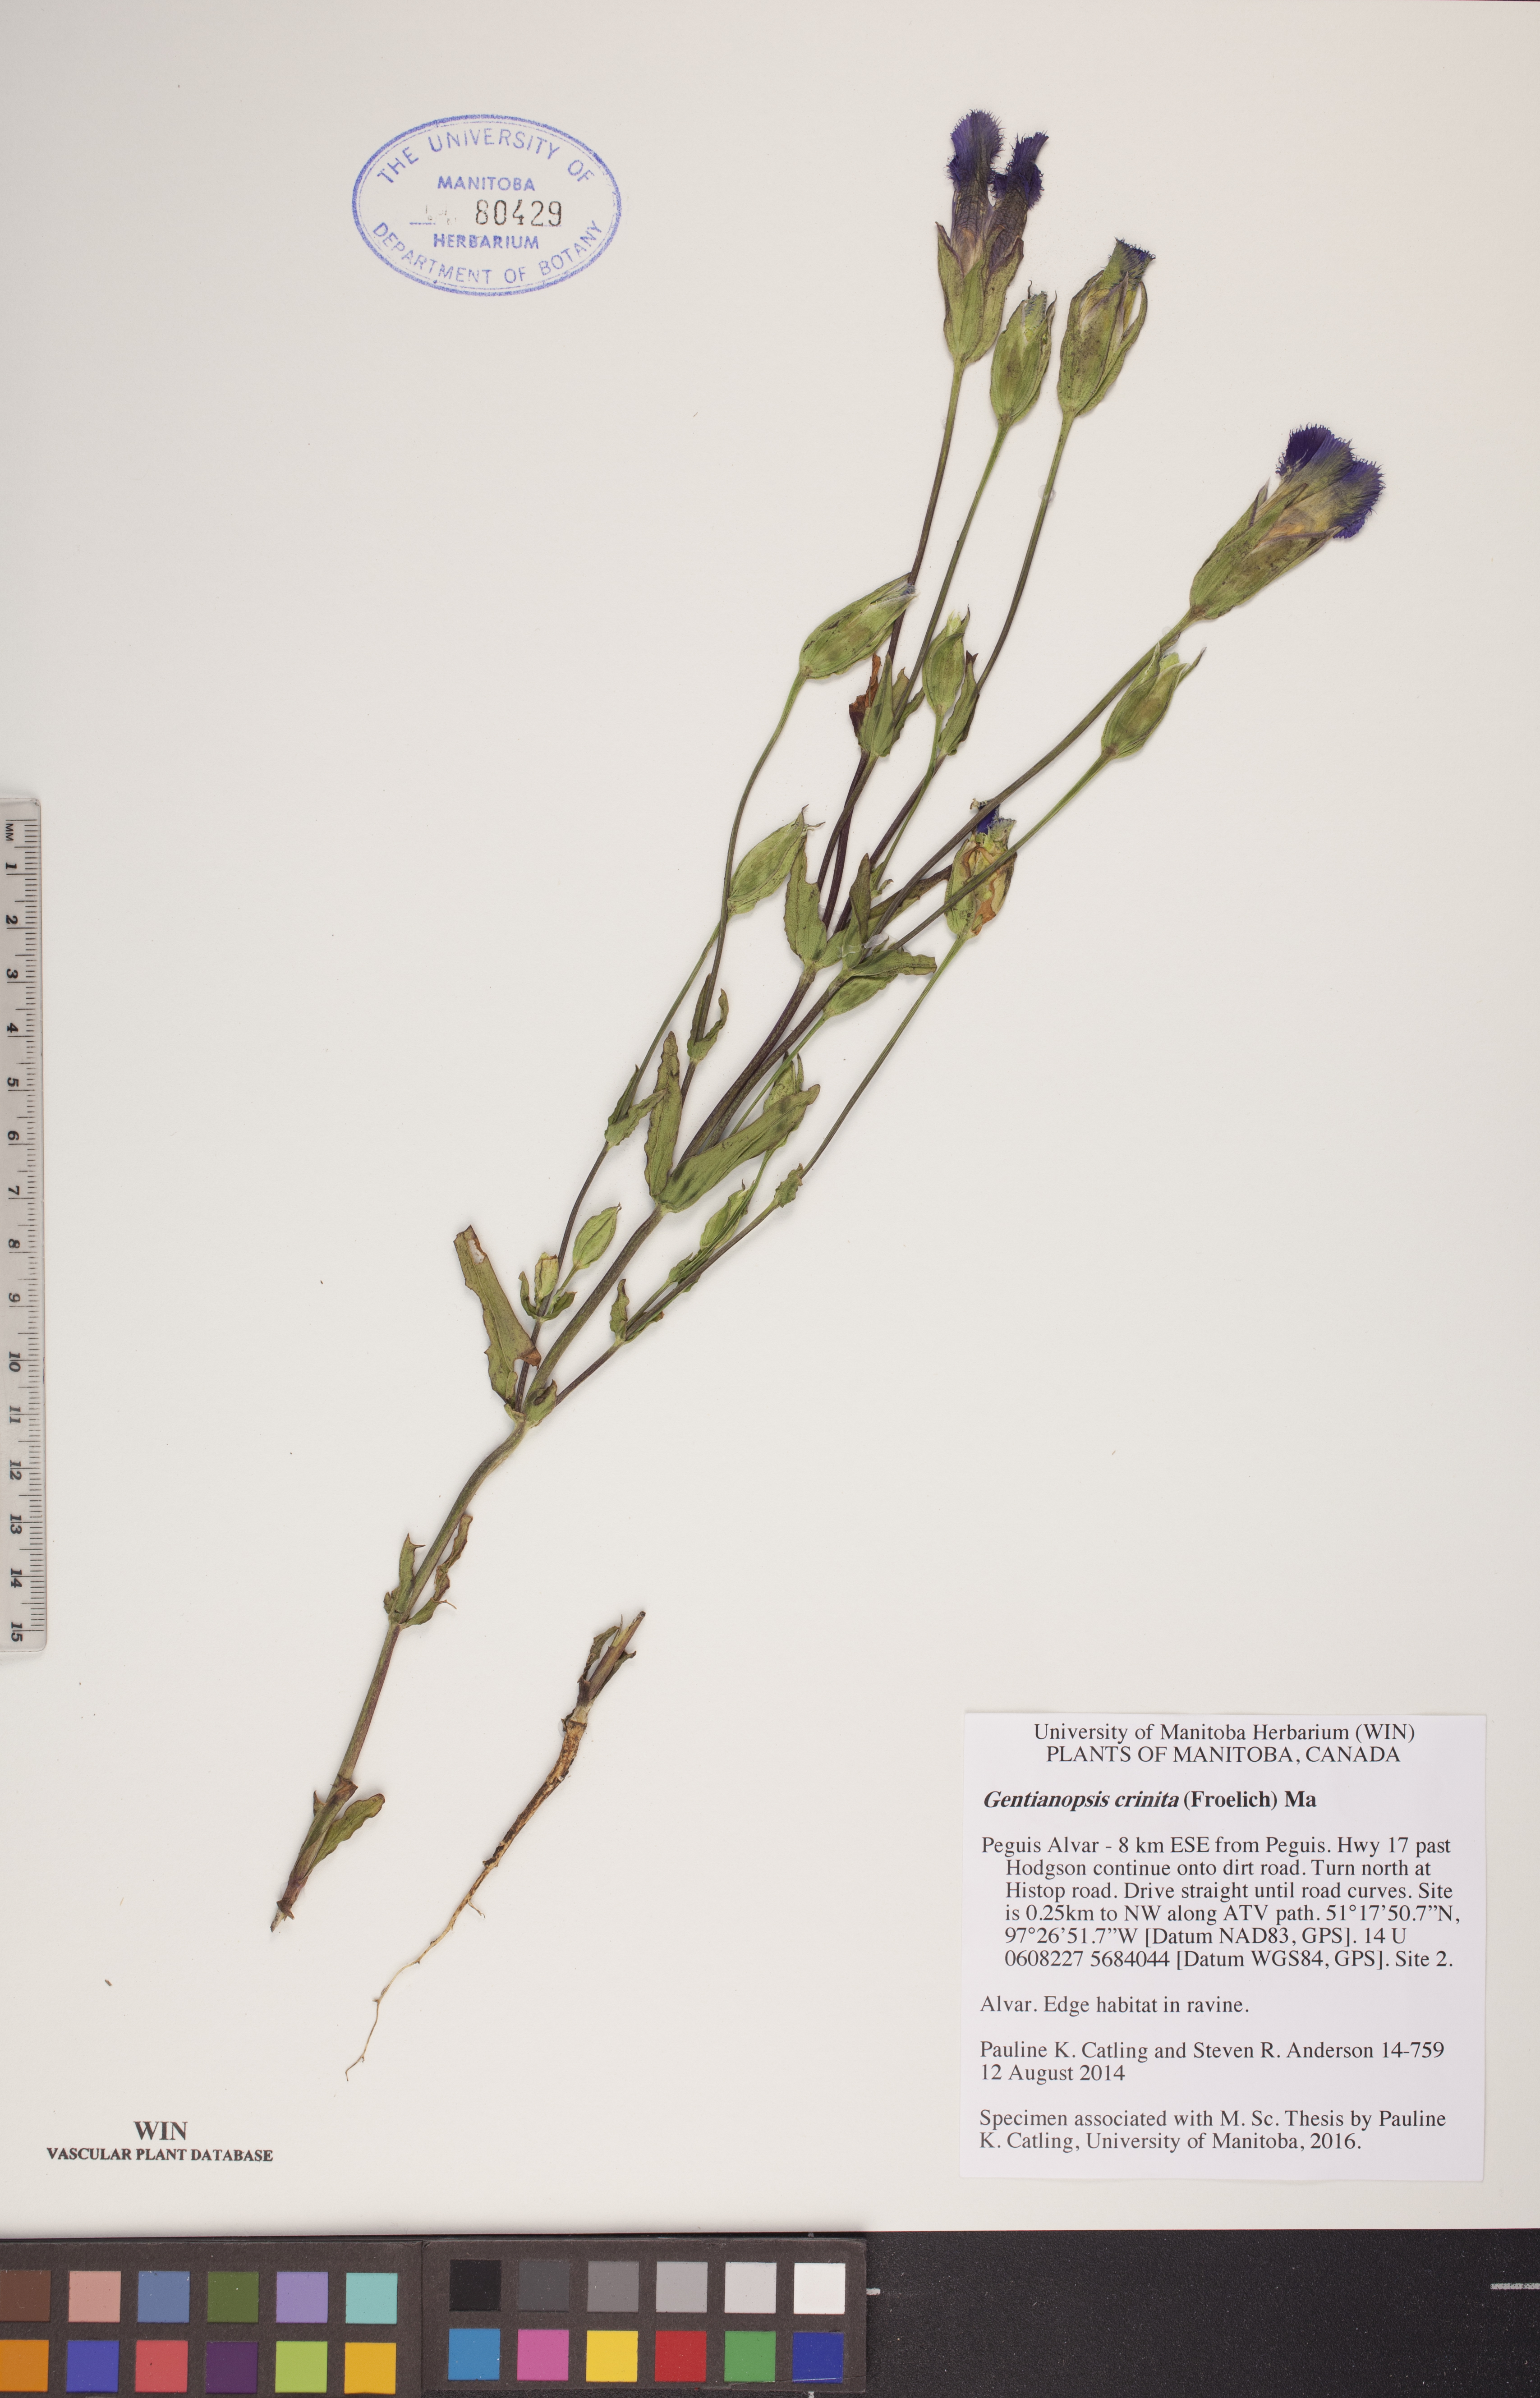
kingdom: Plantae
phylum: Tracheophyta
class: Magnoliopsida
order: Gentianales
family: Gentianaceae
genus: Gentianopsis
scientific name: Gentianopsis crinita
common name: Fringed-gentian
